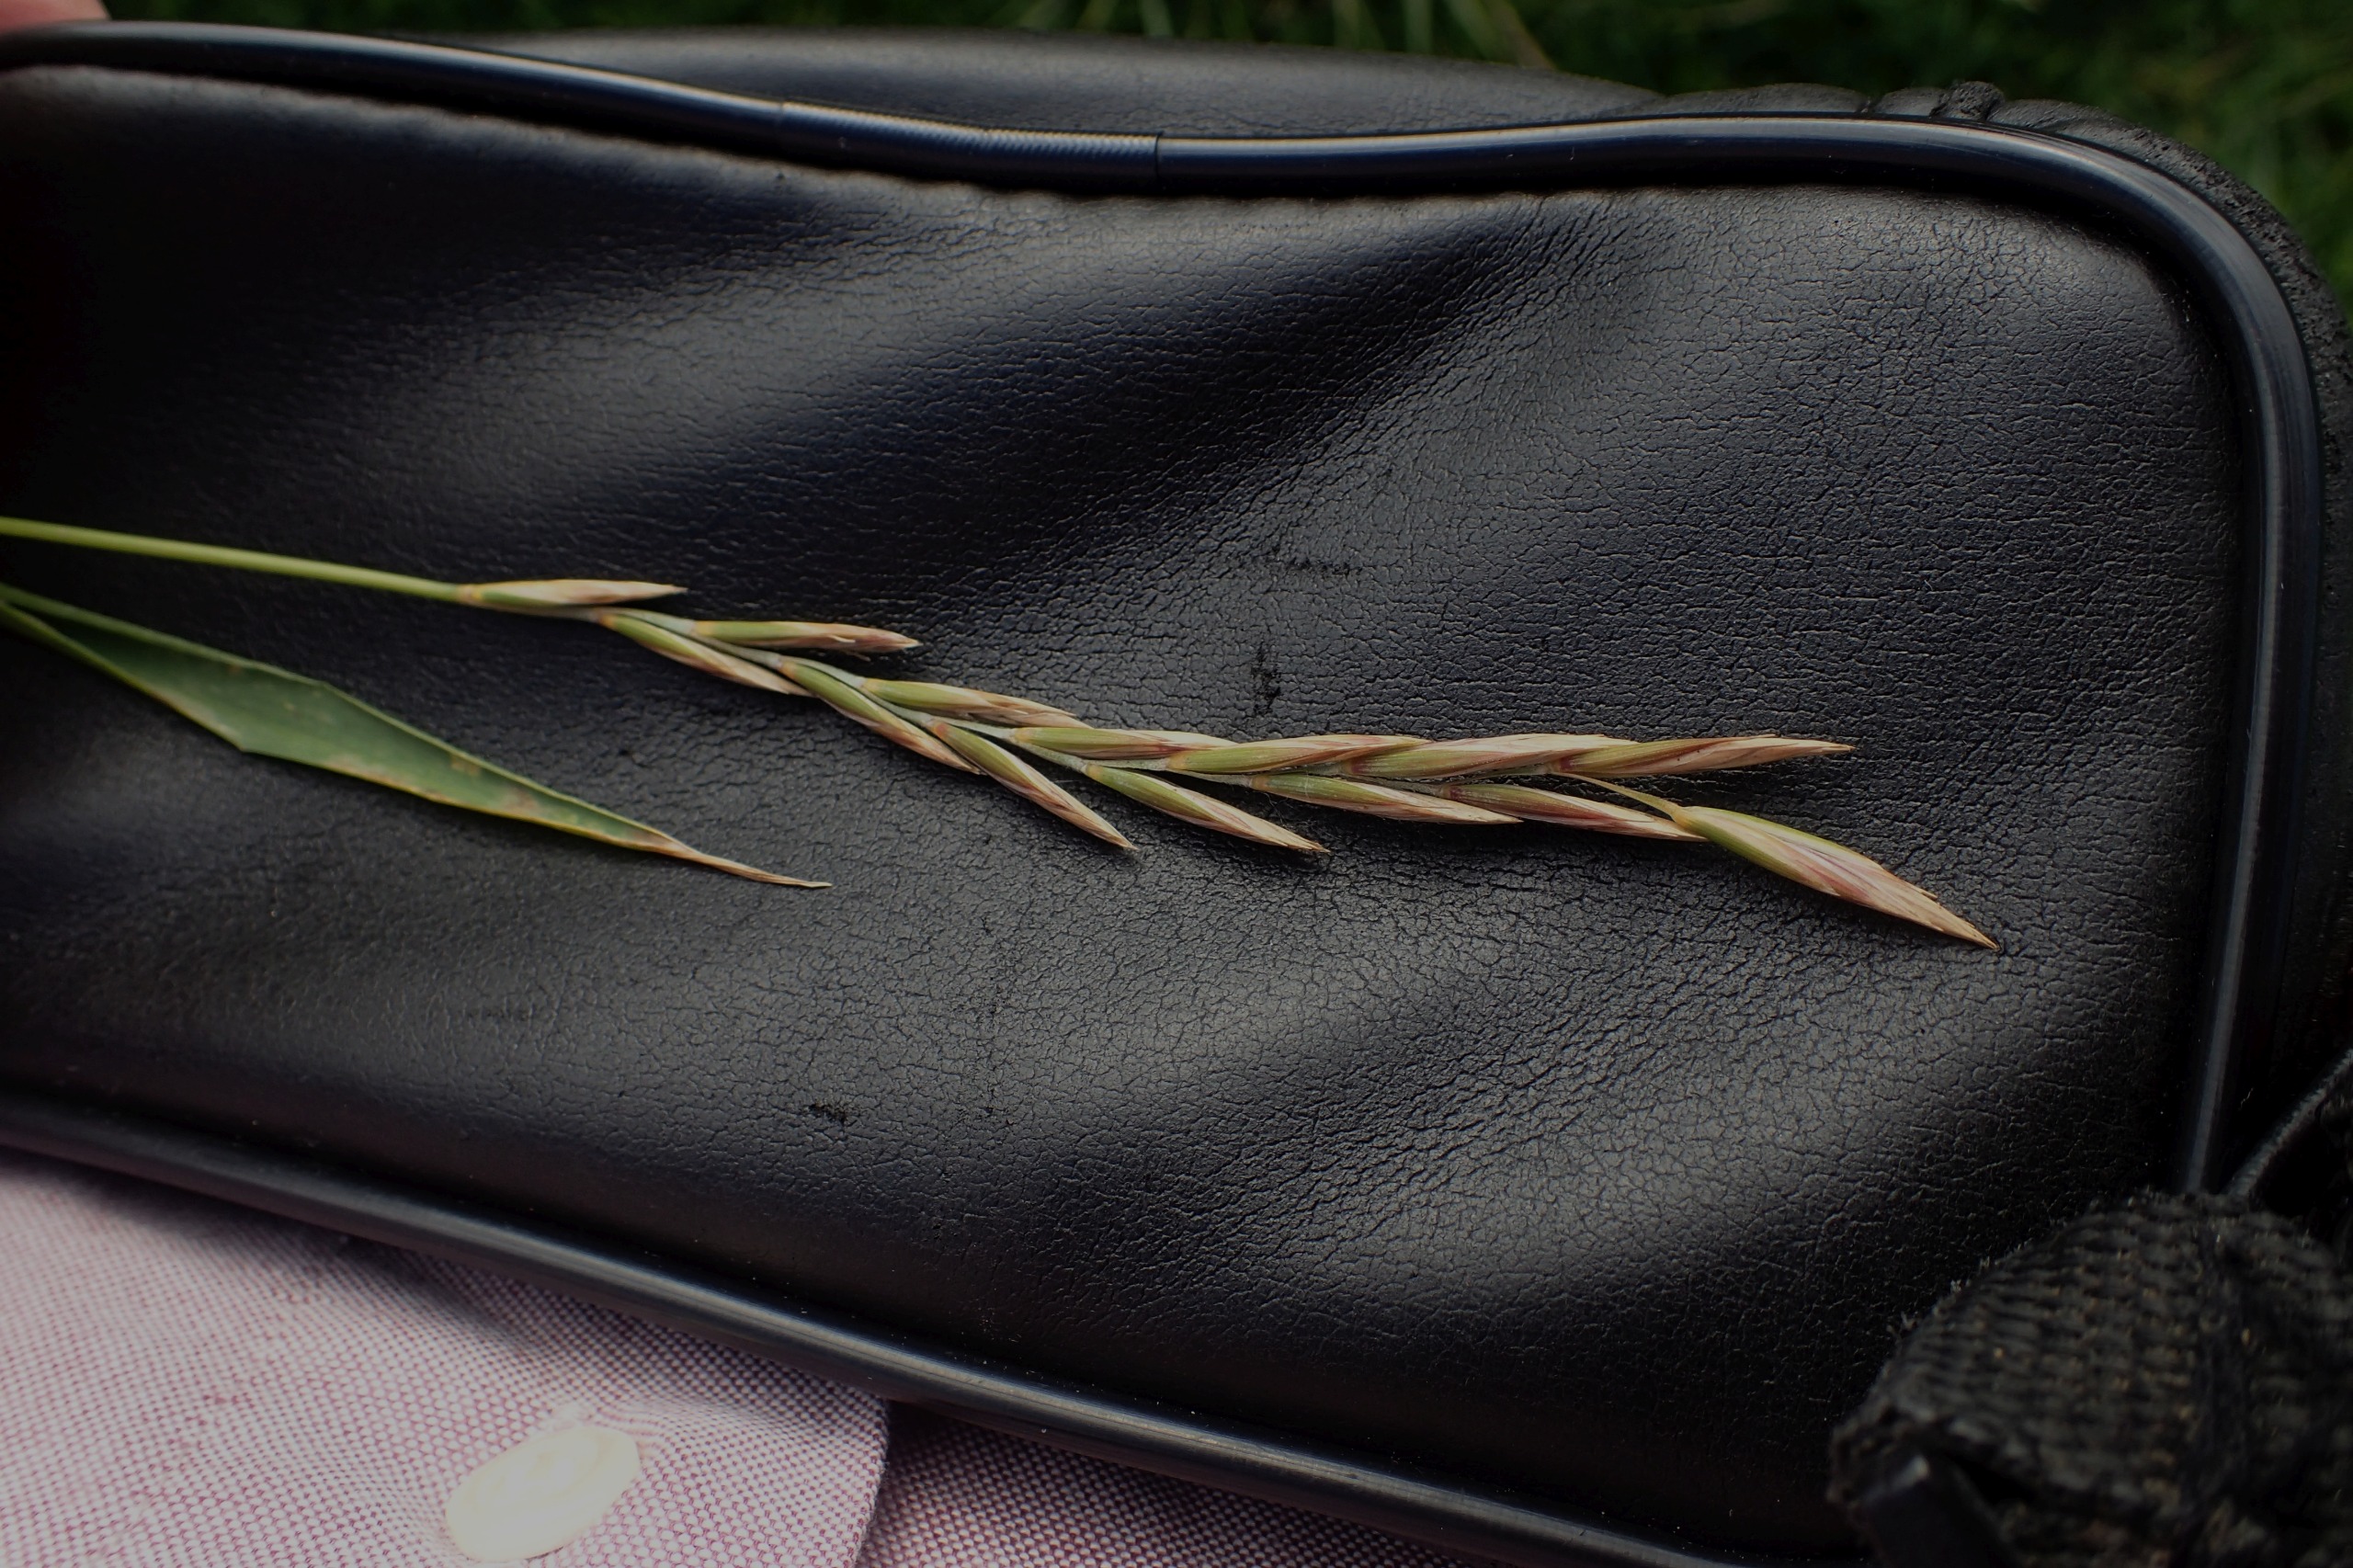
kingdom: Plantae
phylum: Tracheophyta
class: Liliopsida
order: Poales
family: Poaceae
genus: Elymus
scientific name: Elymus repens
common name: Almindelig kvik
